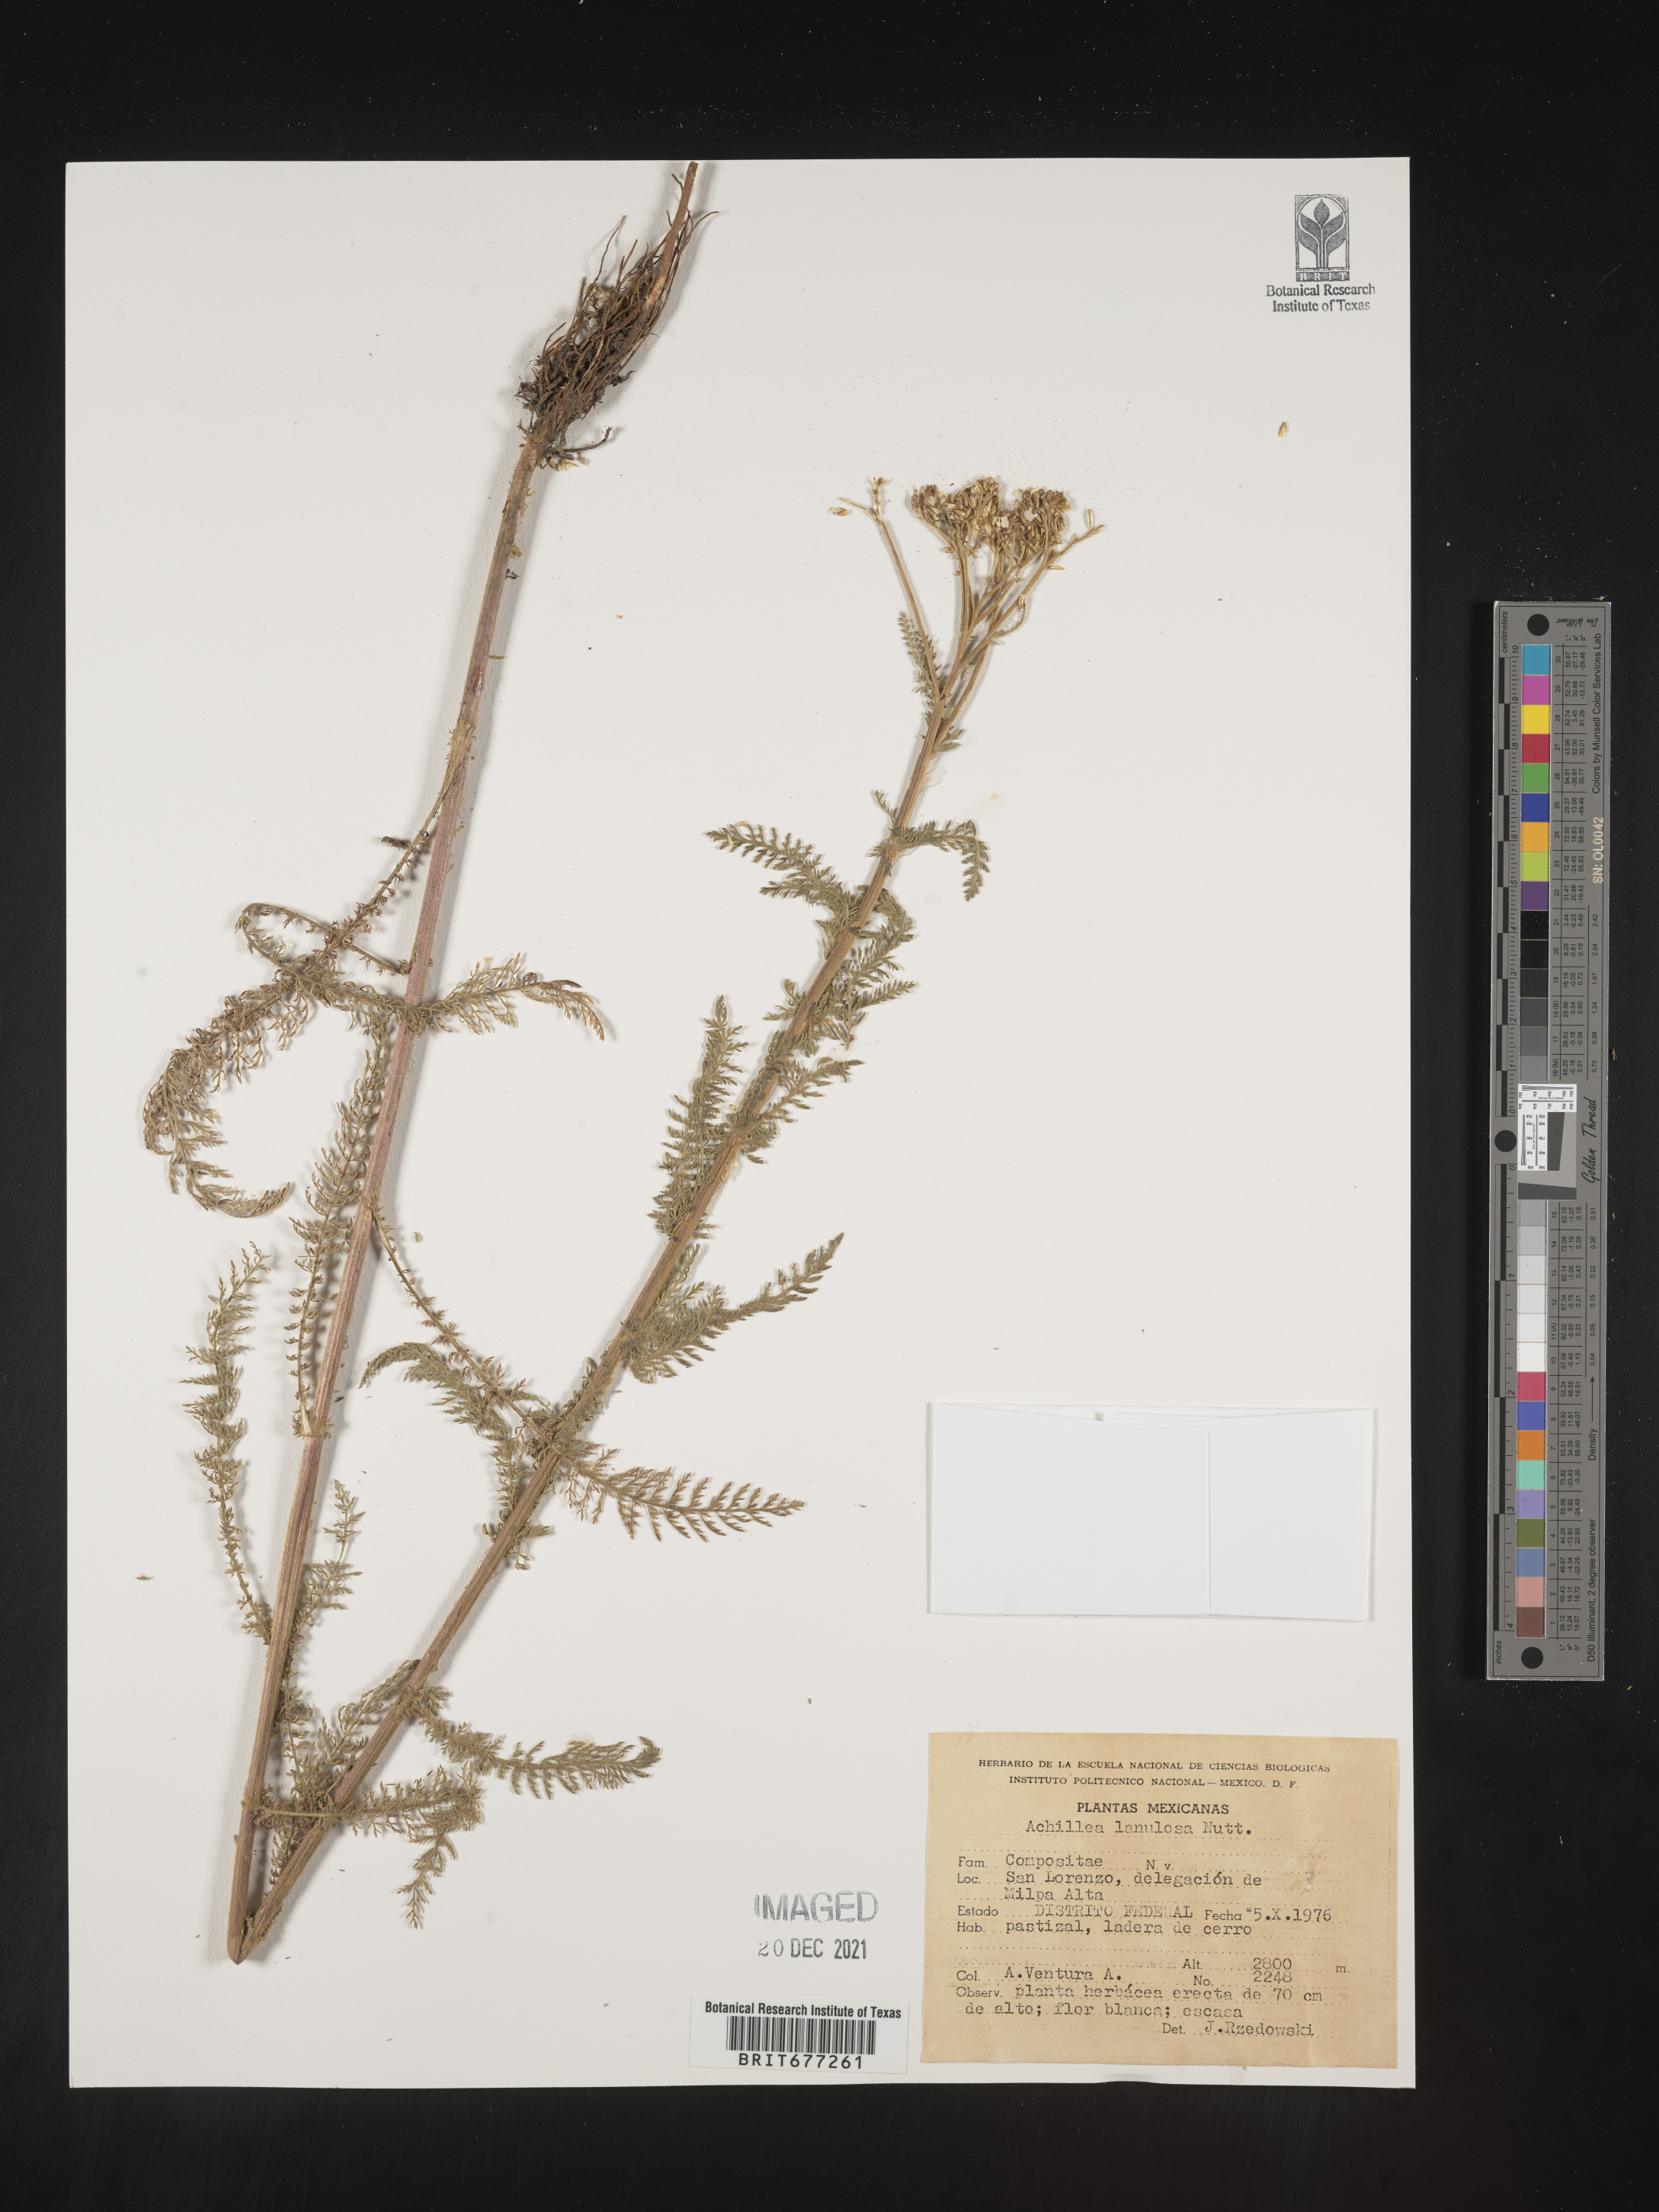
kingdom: Plantae
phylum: Tracheophyta
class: Magnoliopsida
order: Asterales
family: Asteraceae
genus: Achillea
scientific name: Achillea
